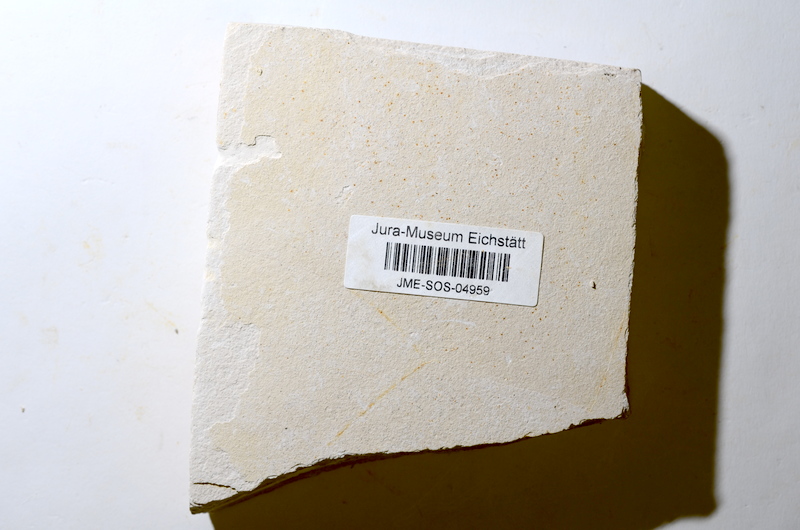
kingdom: Animalia
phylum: Chordata
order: Salmoniformes
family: Orthogonikleithridae
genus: Orthogonikleithrus
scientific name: Orthogonikleithrus hoelli
